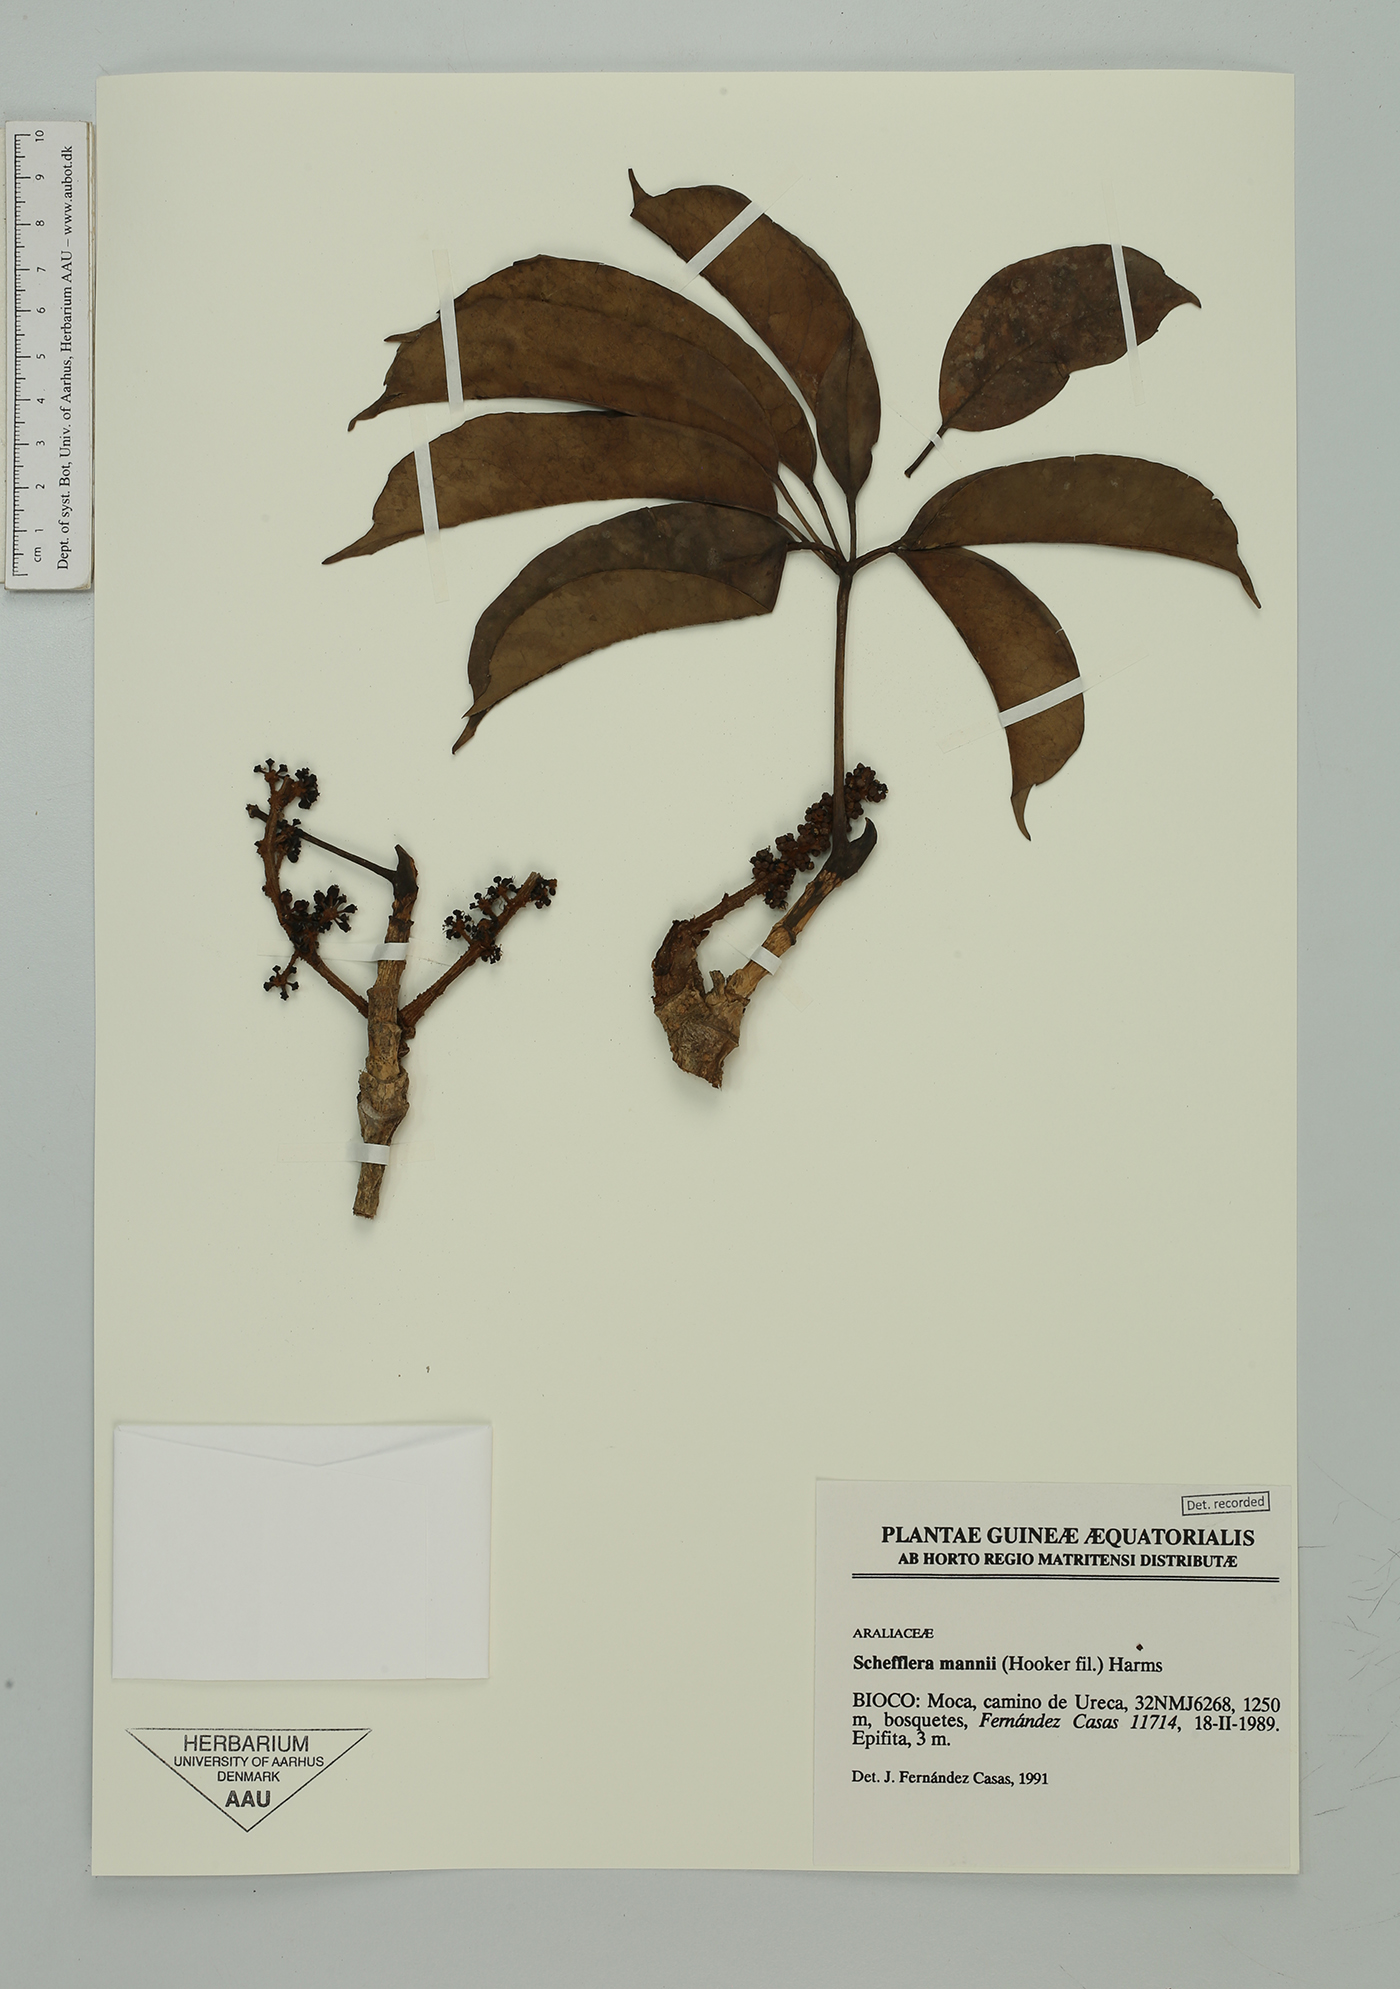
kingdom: Plantae
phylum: Tracheophyta
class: Magnoliopsida
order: Apiales
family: Araliaceae
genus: Astropanax
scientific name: Astropanax mannii
